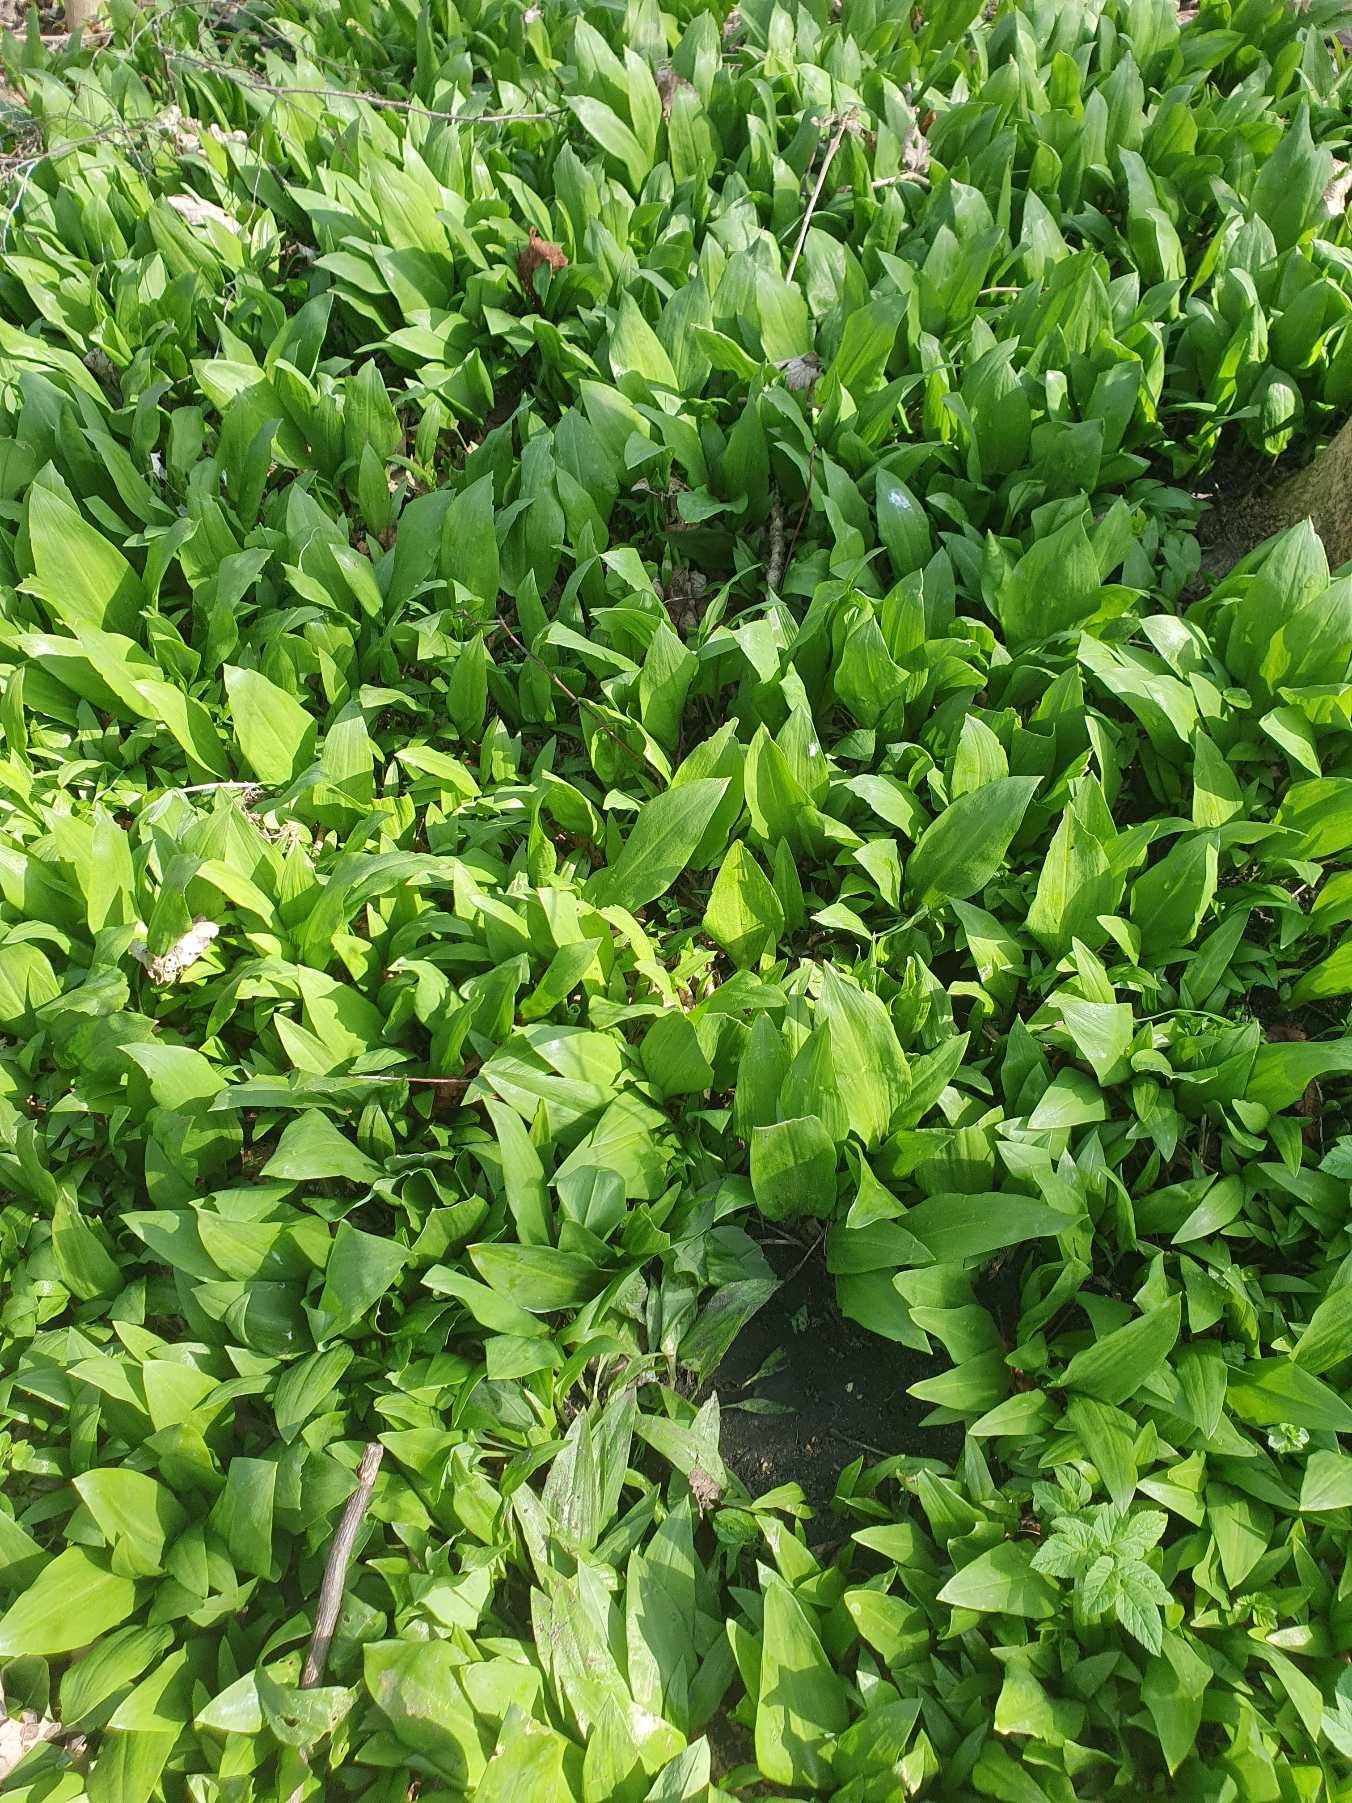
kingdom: Plantae
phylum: Tracheophyta
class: Liliopsida
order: Asparagales
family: Amaryllidaceae
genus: Allium
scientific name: Allium ursinum
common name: Rams-løg
